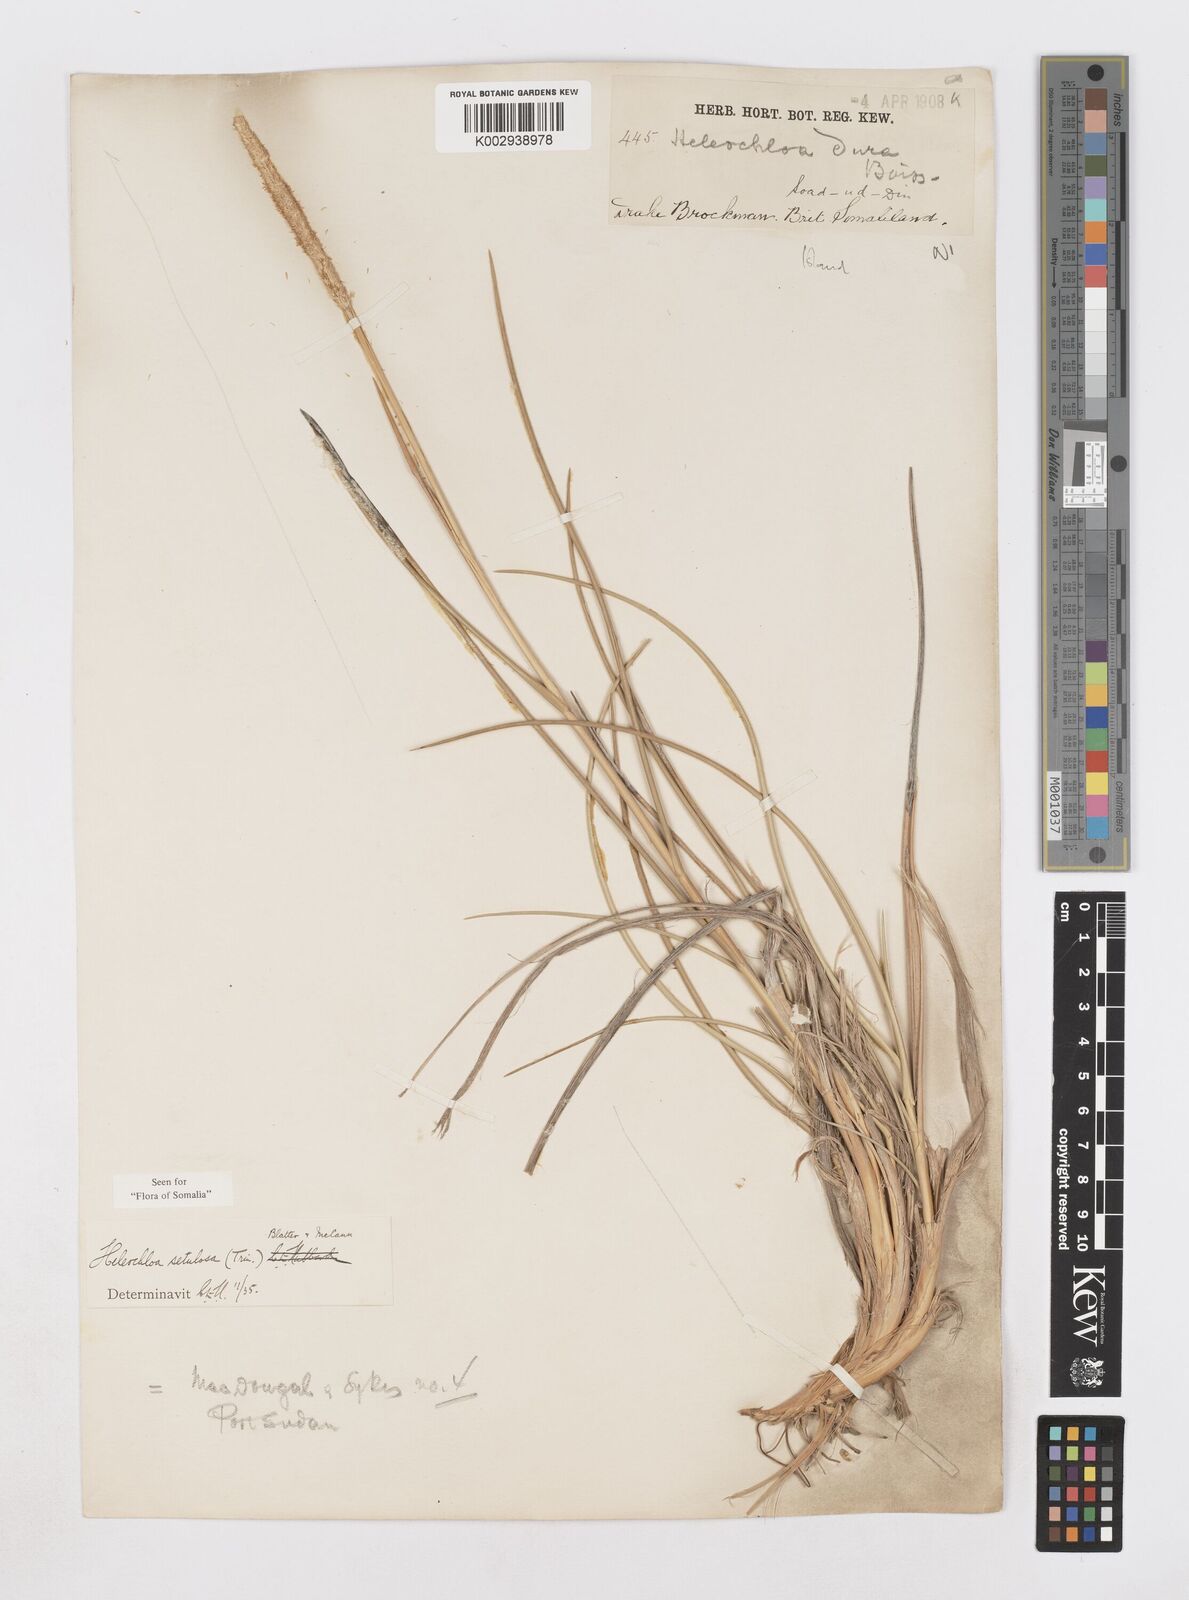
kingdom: Plantae
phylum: Tracheophyta
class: Liliopsida
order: Poales
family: Poaceae
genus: Urochondra
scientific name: Urochondra setulosa
